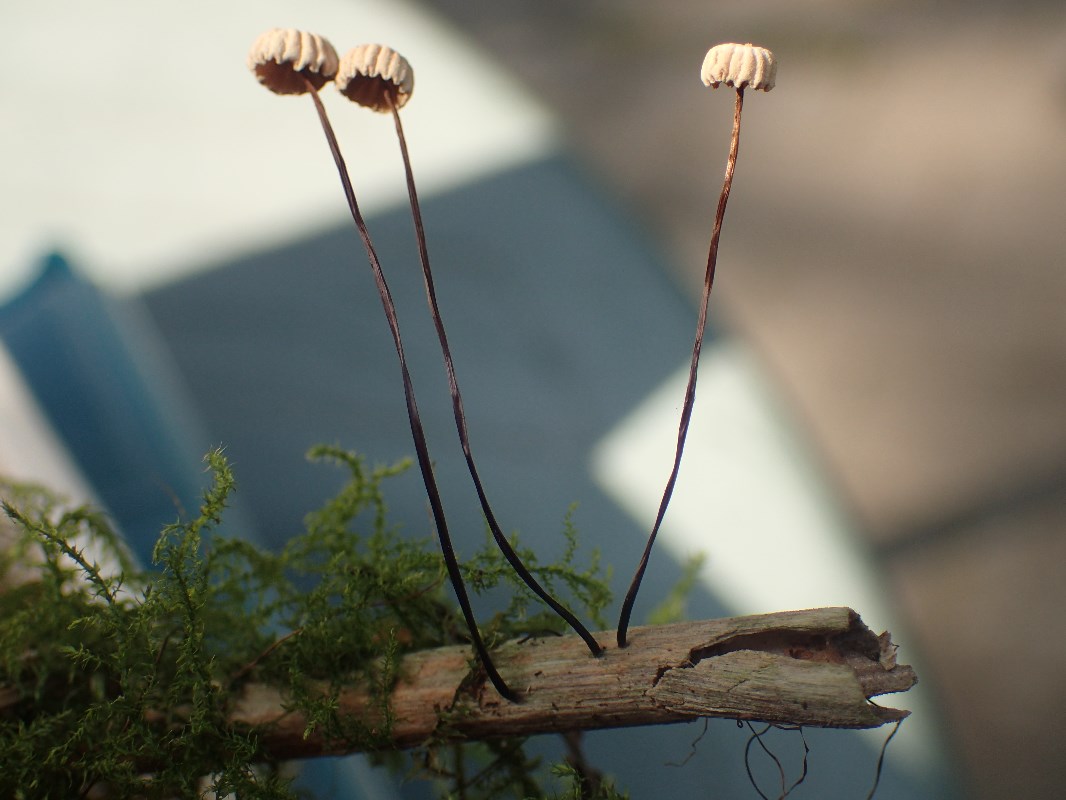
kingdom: Fungi
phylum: Basidiomycota
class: Agaricomycetes
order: Agaricales
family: Marasmiaceae
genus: Marasmius
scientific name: Marasmius rotula
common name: hjul-bruskhat
